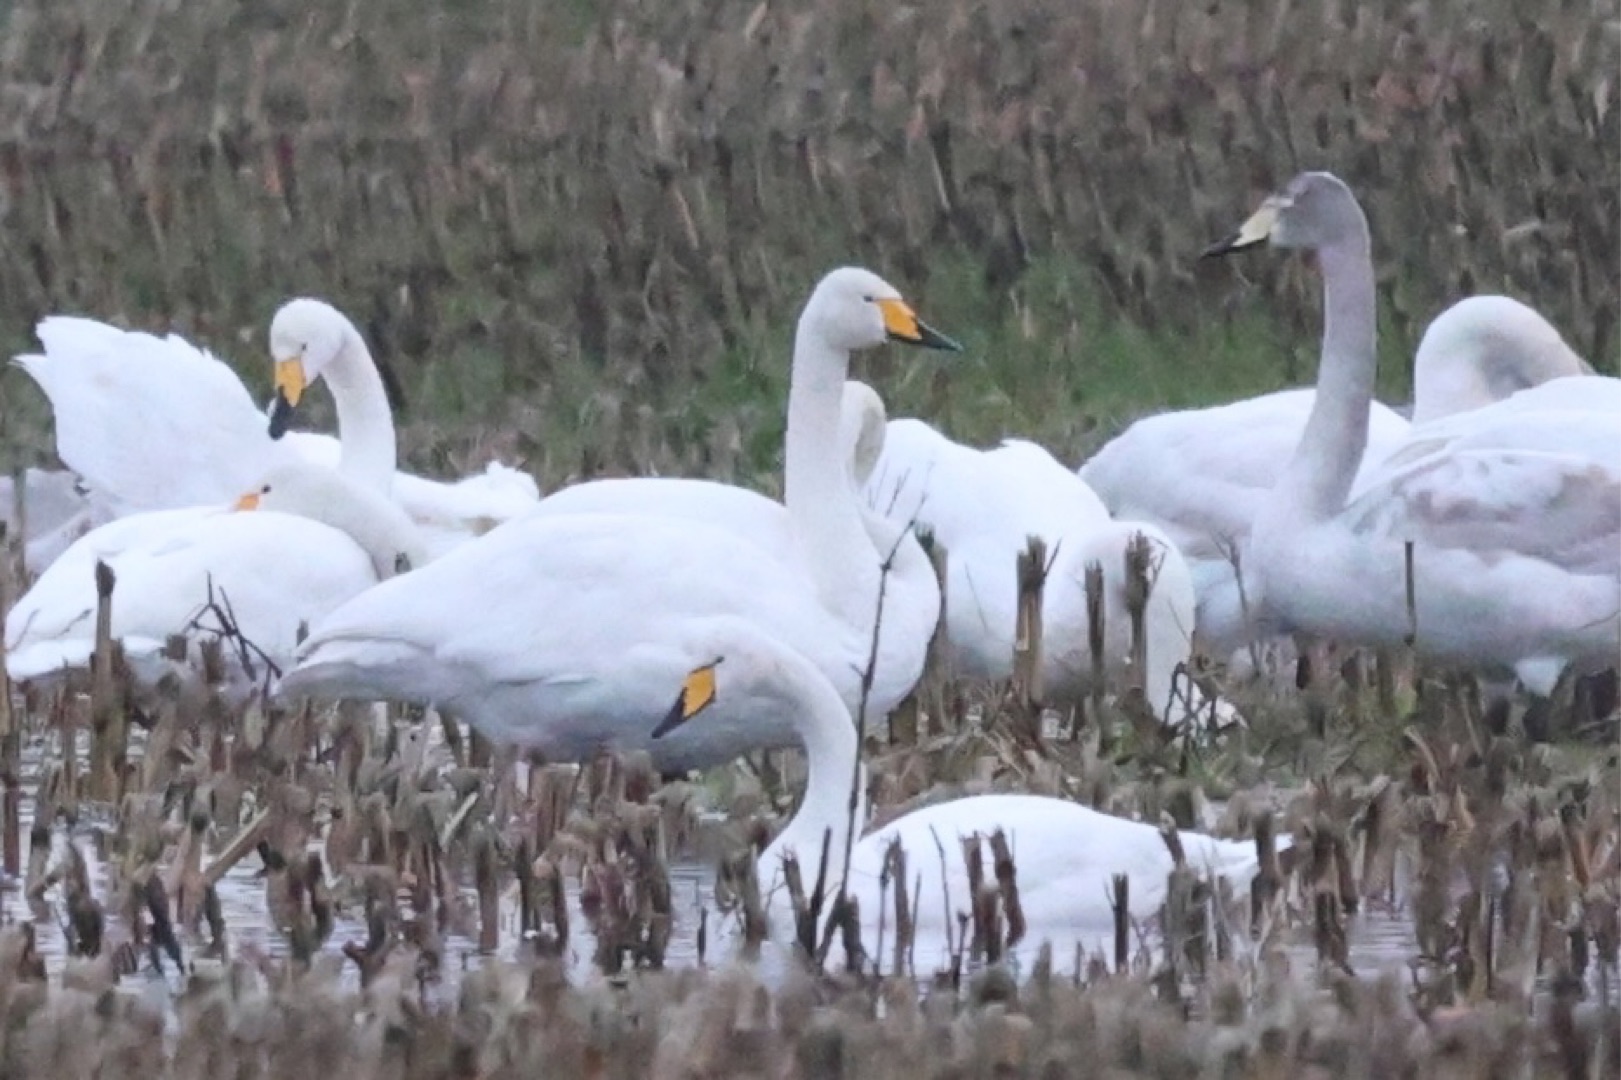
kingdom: Animalia
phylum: Chordata
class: Aves
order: Anseriformes
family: Anatidae
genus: Cygnus
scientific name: Cygnus cygnus
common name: Sangsvane
